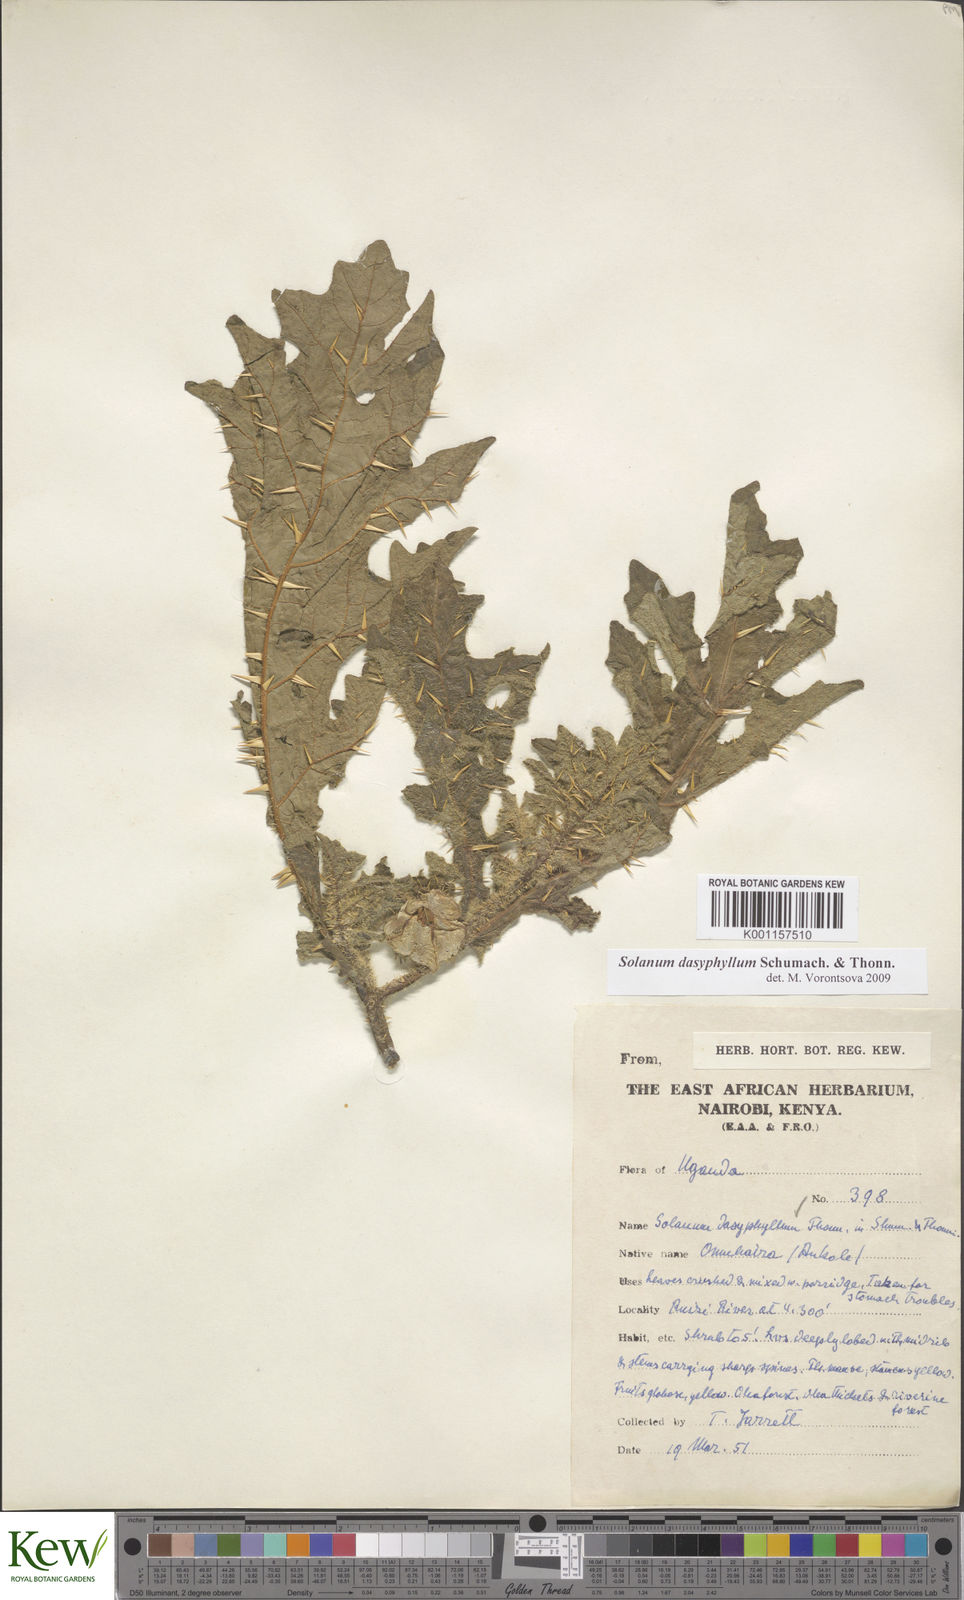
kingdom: Plantae
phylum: Tracheophyta
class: Magnoliopsida
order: Solanales
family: Solanaceae
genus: Solanum
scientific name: Solanum dasyphyllum
